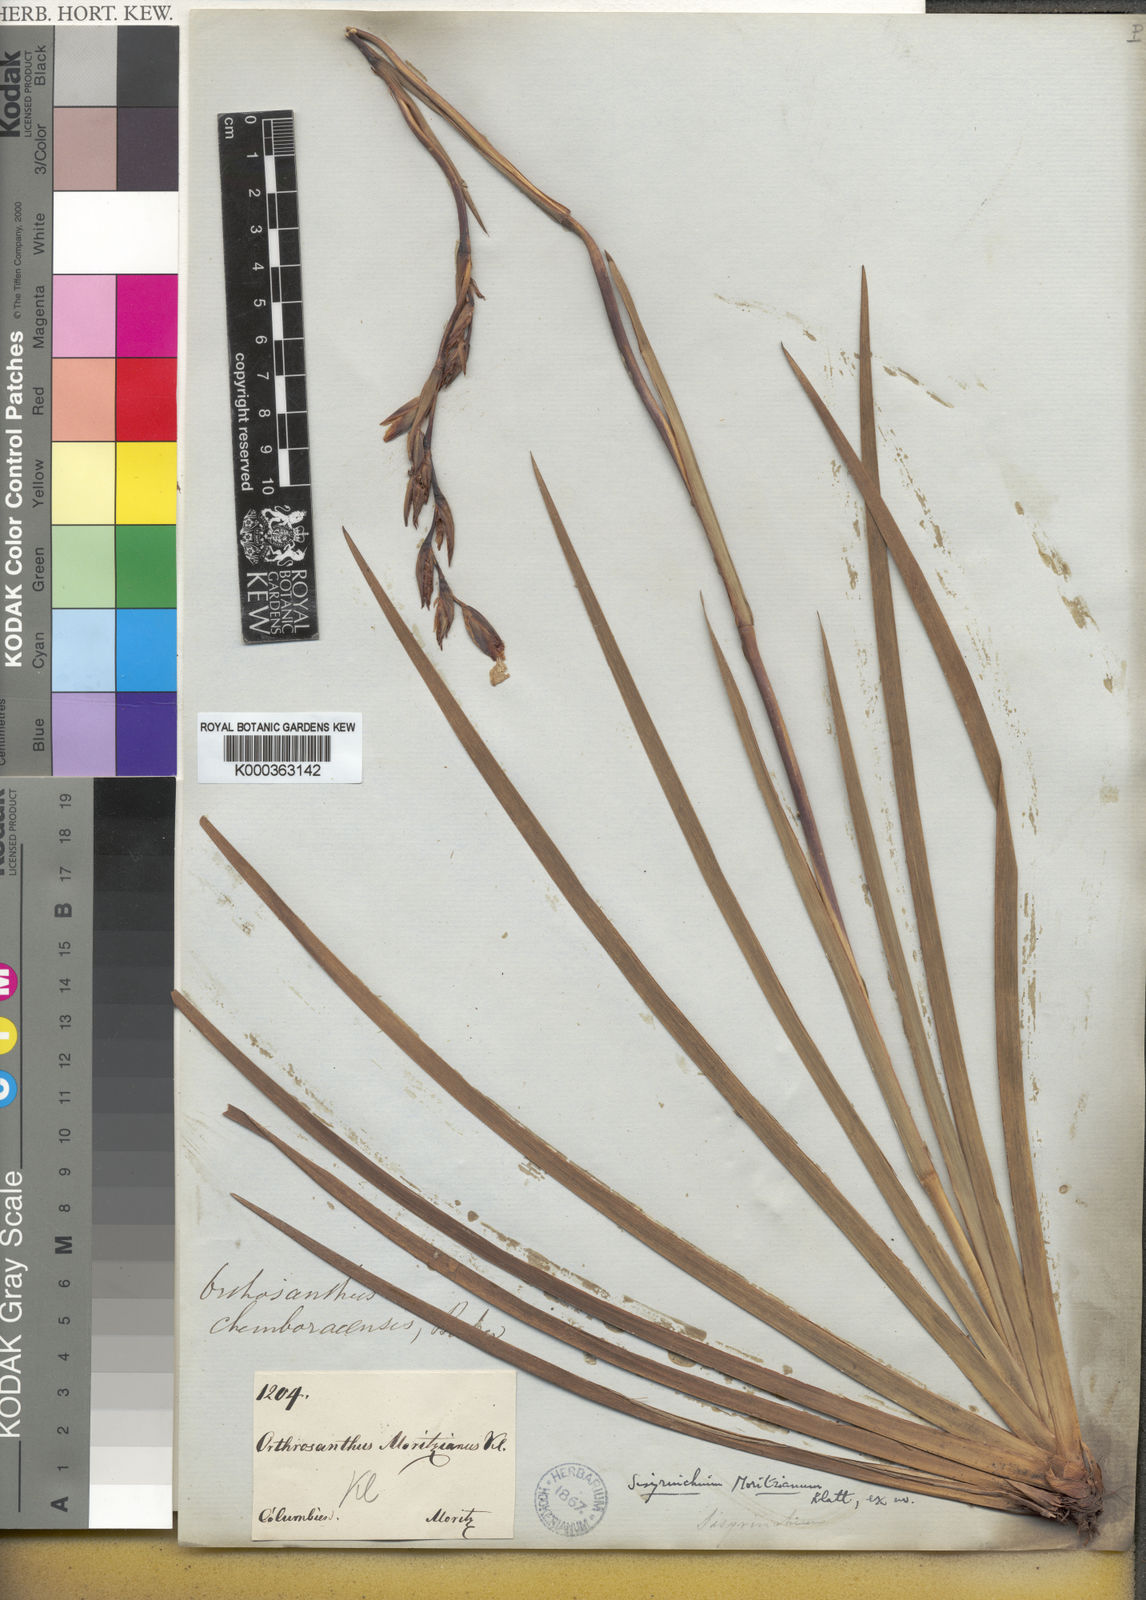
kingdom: Plantae
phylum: Tracheophyta
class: Liliopsida
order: Asparagales
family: Iridaceae
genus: Orthrosanthus
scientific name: Orthrosanthus chimboracensis
